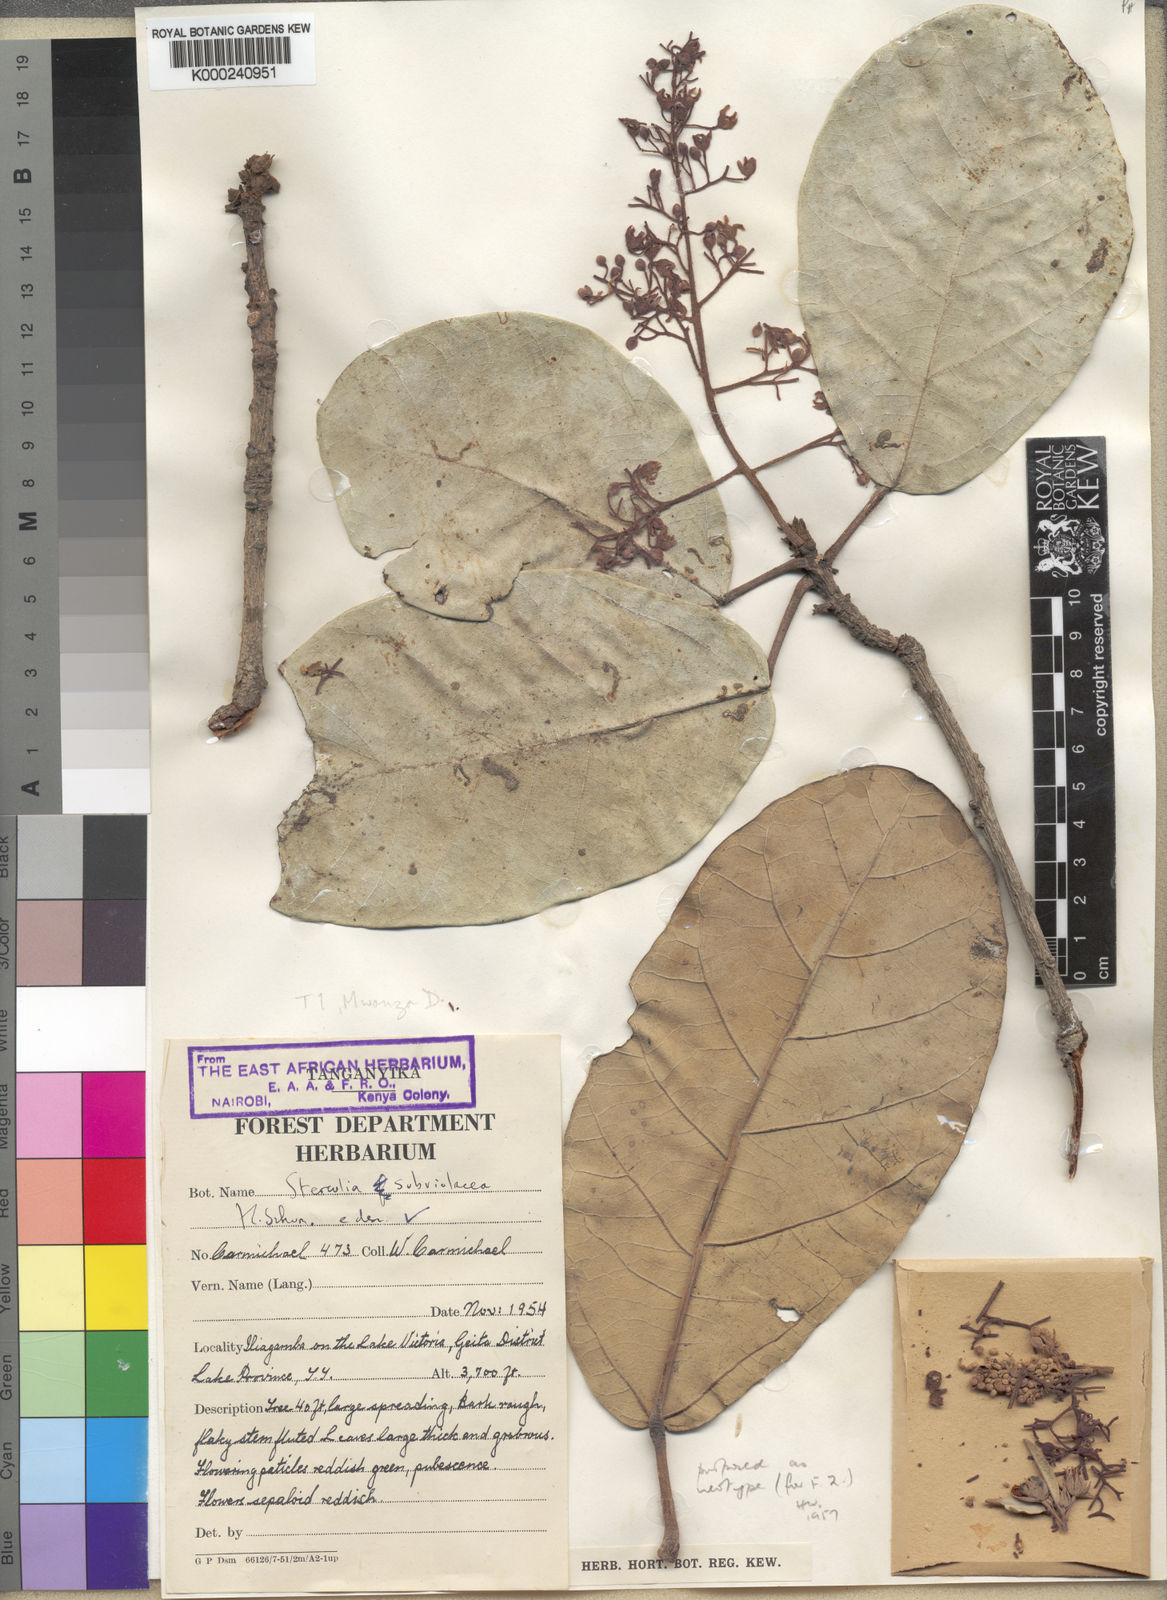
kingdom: Plantae
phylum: Tracheophyta
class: Magnoliopsida
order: Malvales
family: Malvaceae
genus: Sterculia
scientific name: Sterculia subviolacea
